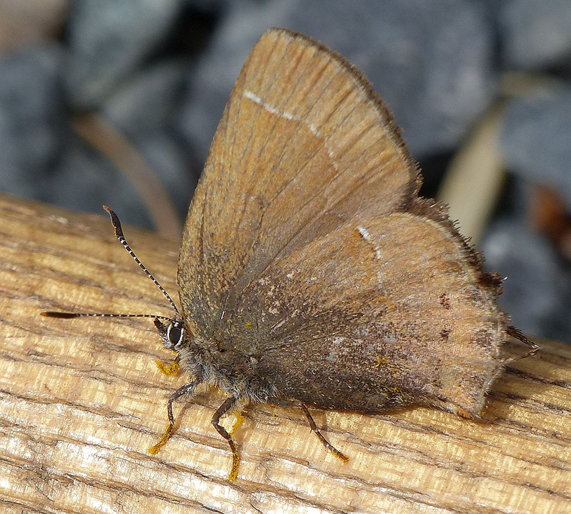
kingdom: Animalia
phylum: Arthropoda
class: Insecta
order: Lepidoptera
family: Lycaenidae
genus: Mitoura
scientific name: Mitoura gryneus
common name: Juniper Hairstreak
